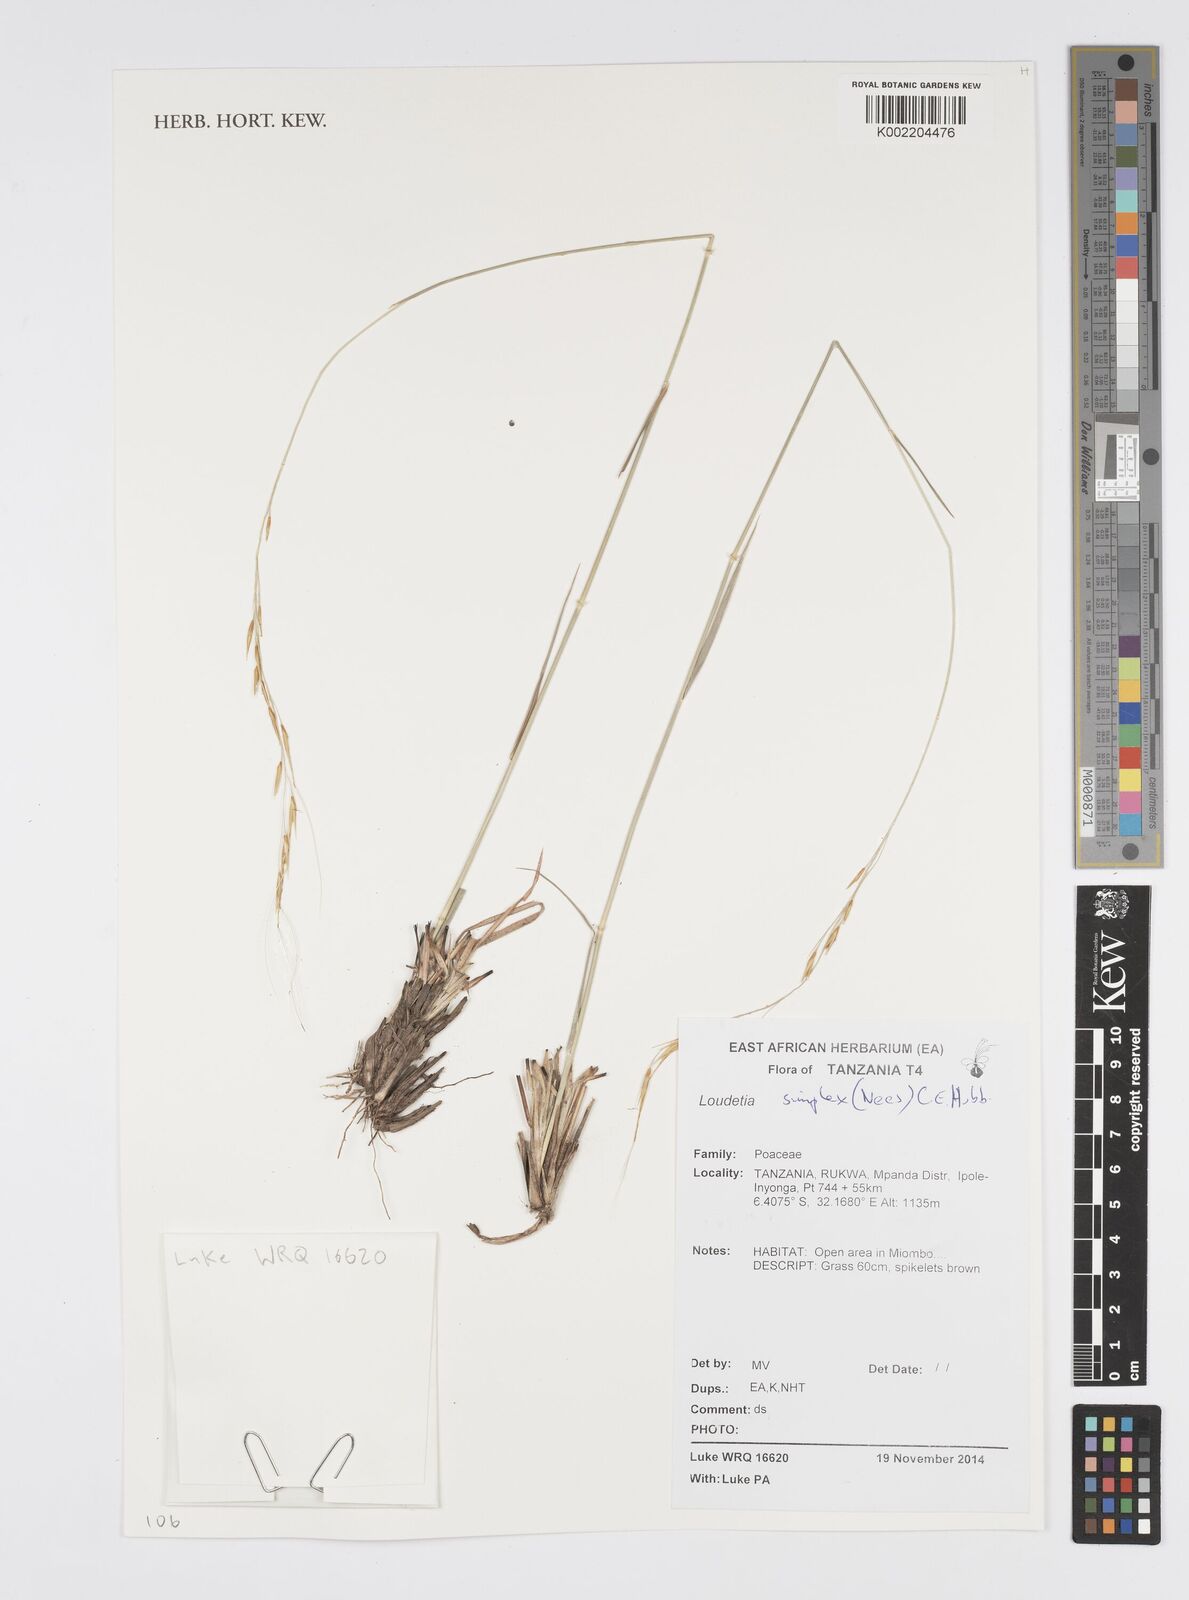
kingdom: Plantae
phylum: Tracheophyta
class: Liliopsida
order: Poales
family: Poaceae
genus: Loudetia
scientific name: Loudetia simplex
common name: Common russet grass
